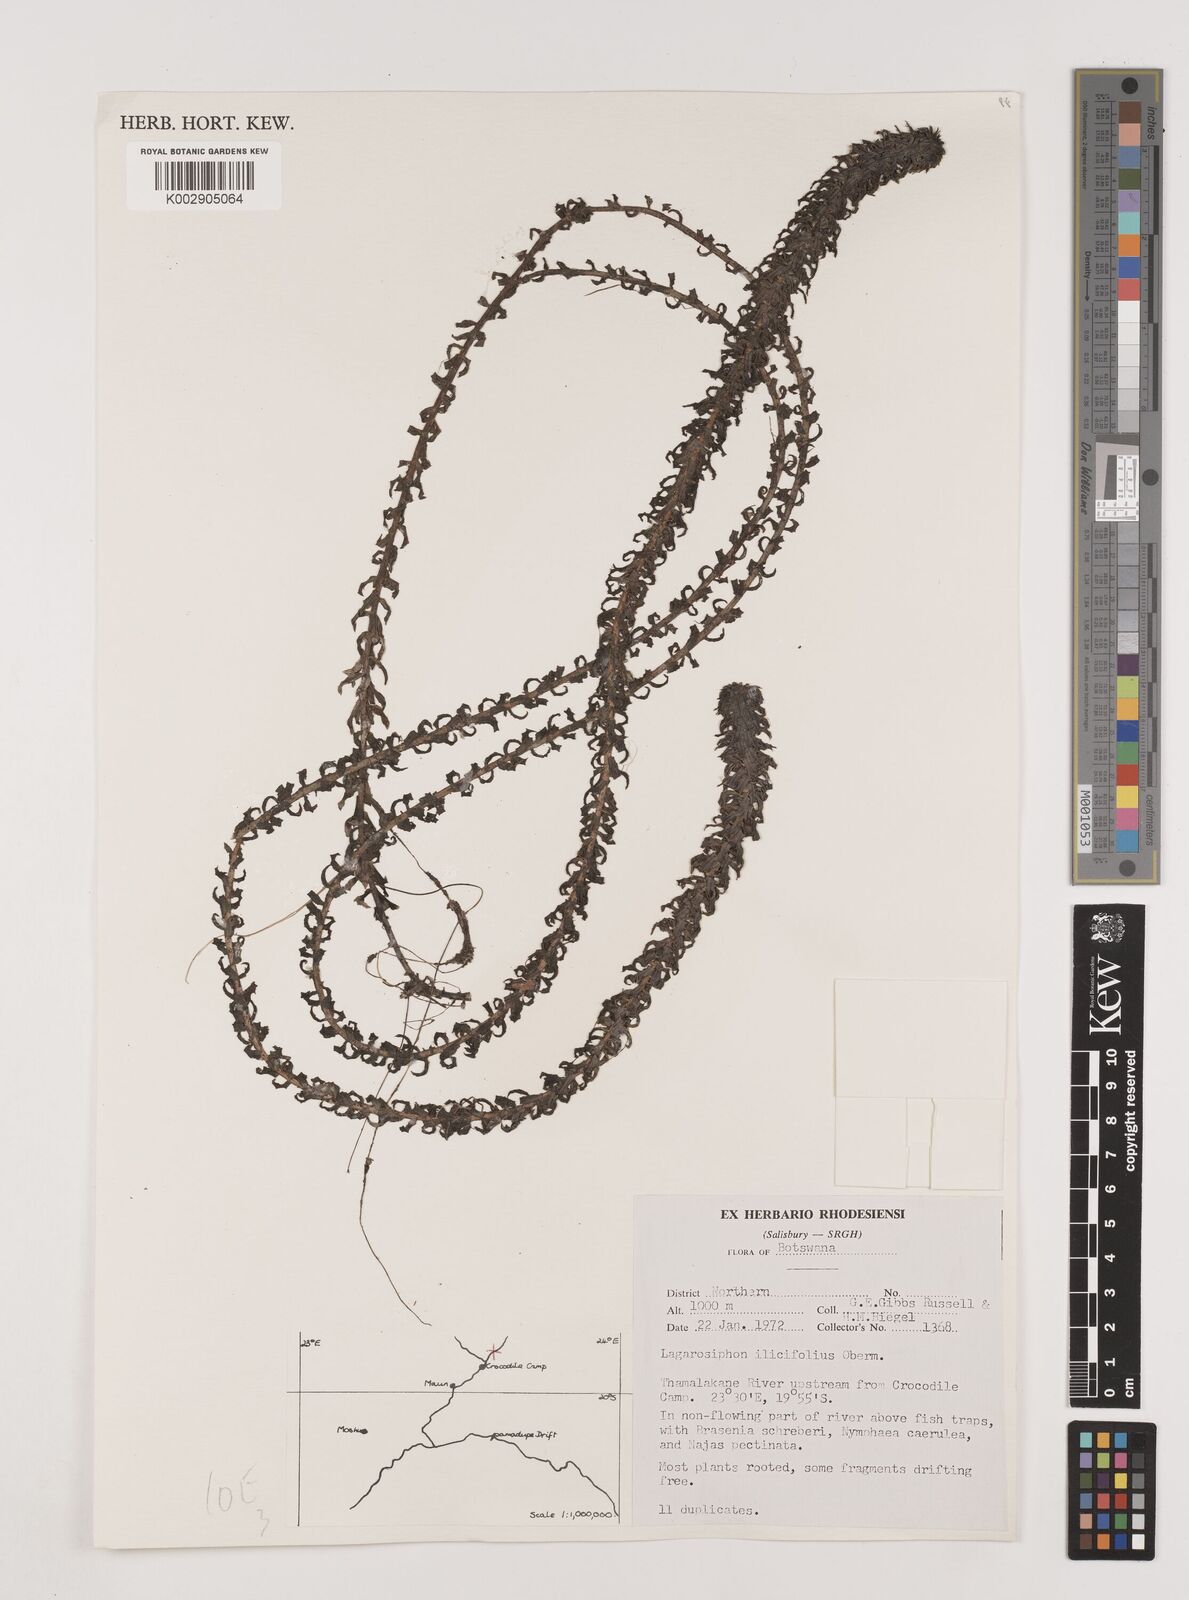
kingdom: Plantae
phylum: Tracheophyta
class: Liliopsida
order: Alismatales
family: Hydrocharitaceae
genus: Lagarosiphon
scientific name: Lagarosiphon ilicifolius
